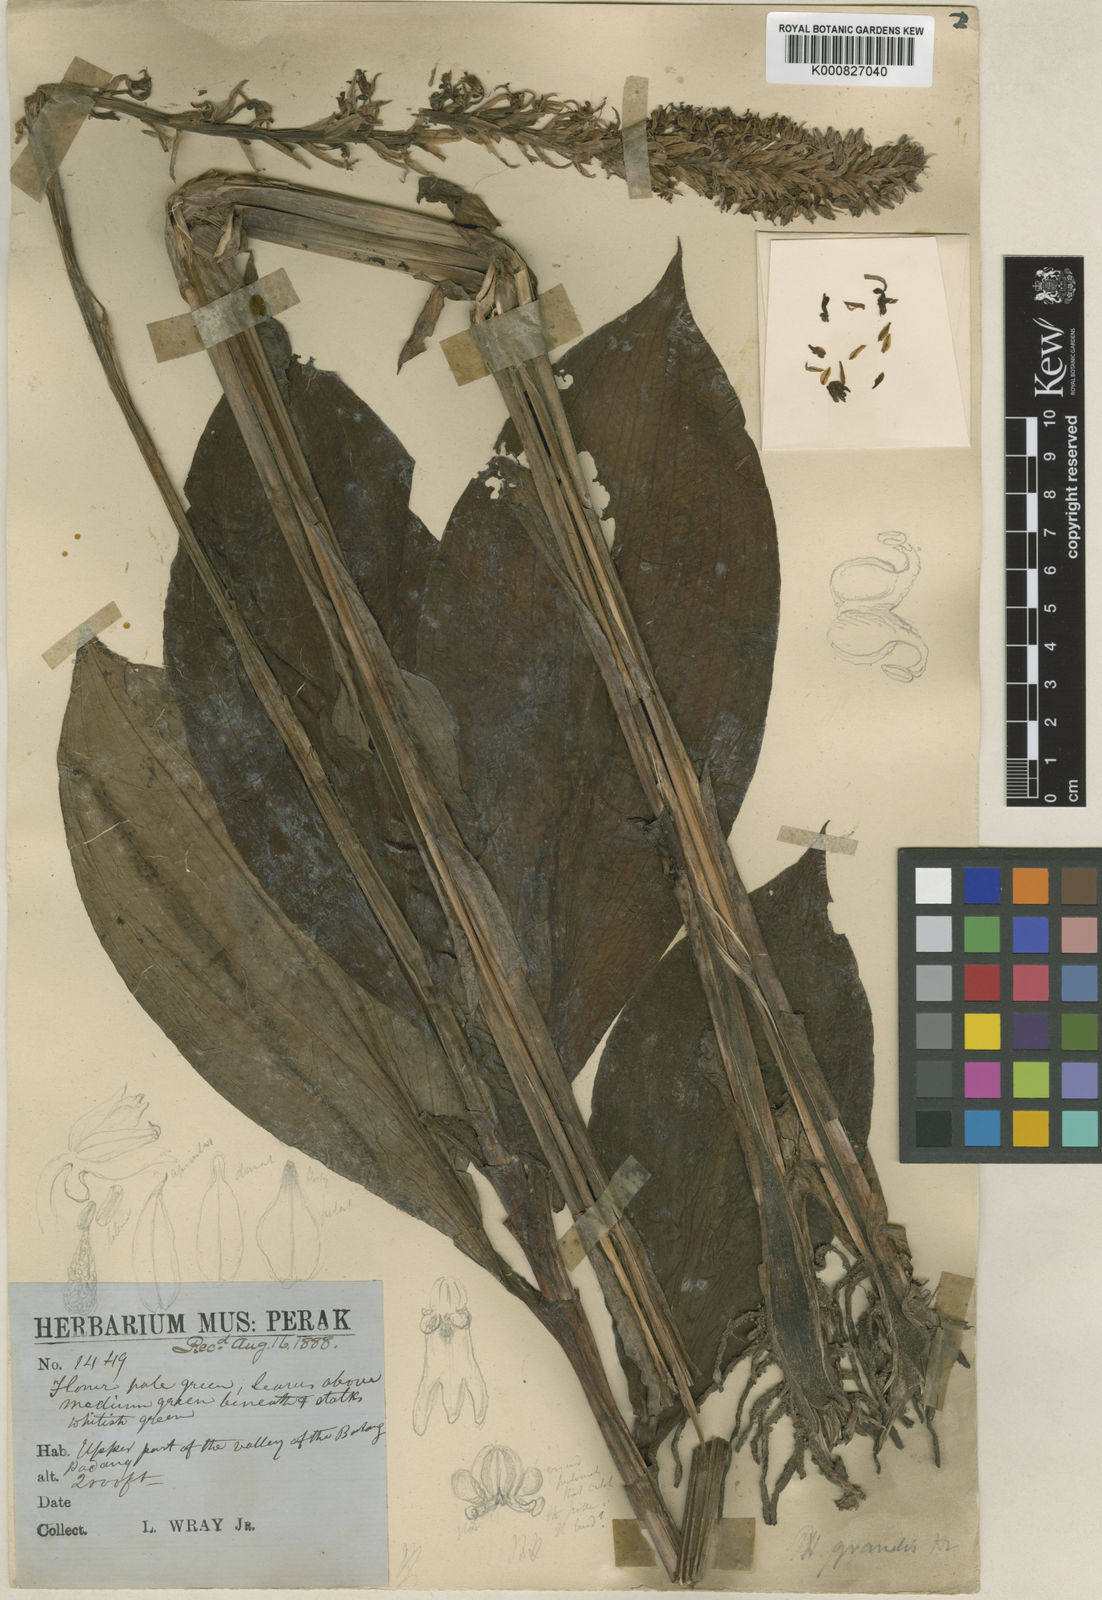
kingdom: Plantae
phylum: Tracheophyta
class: Liliopsida
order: Asparagales
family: Orchidaceae
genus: Peristylus
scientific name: Peristylus grandis
